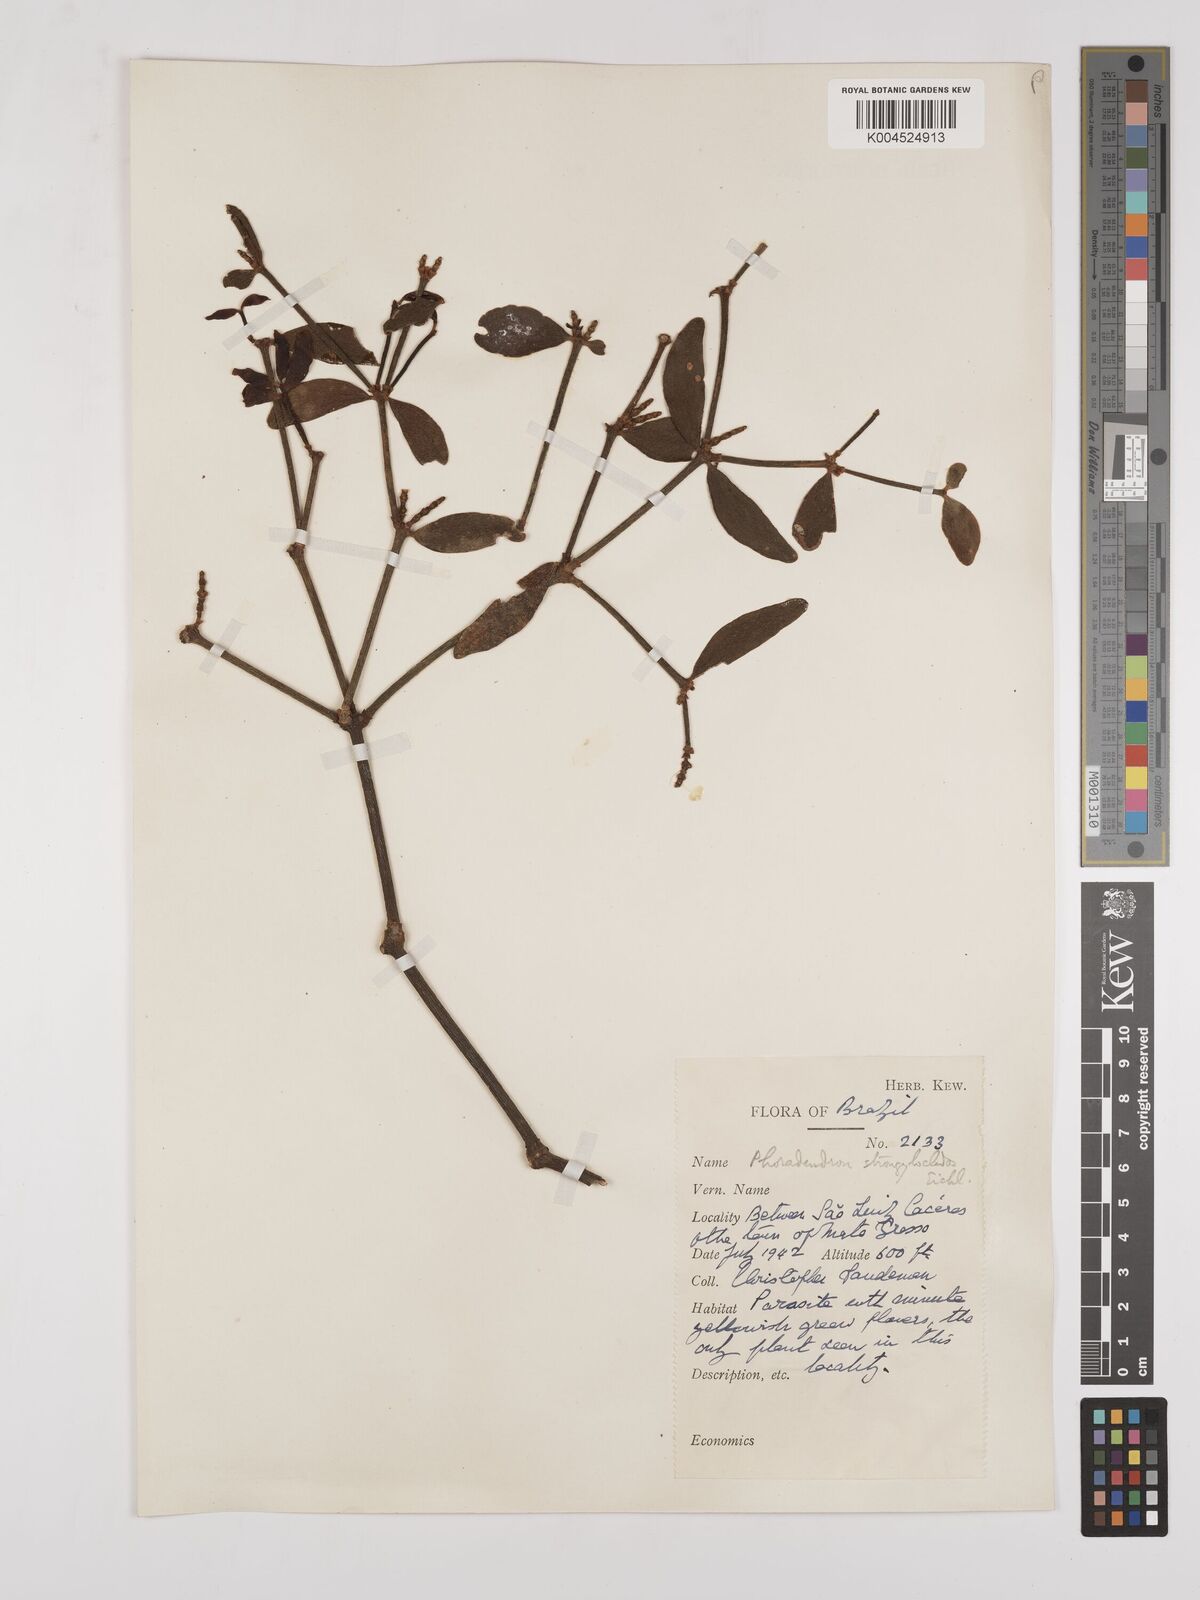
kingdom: Plantae
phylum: Tracheophyta
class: Magnoliopsida
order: Santalales
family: Viscaceae
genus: Phoradendron
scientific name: Phoradendron strongyloclados
